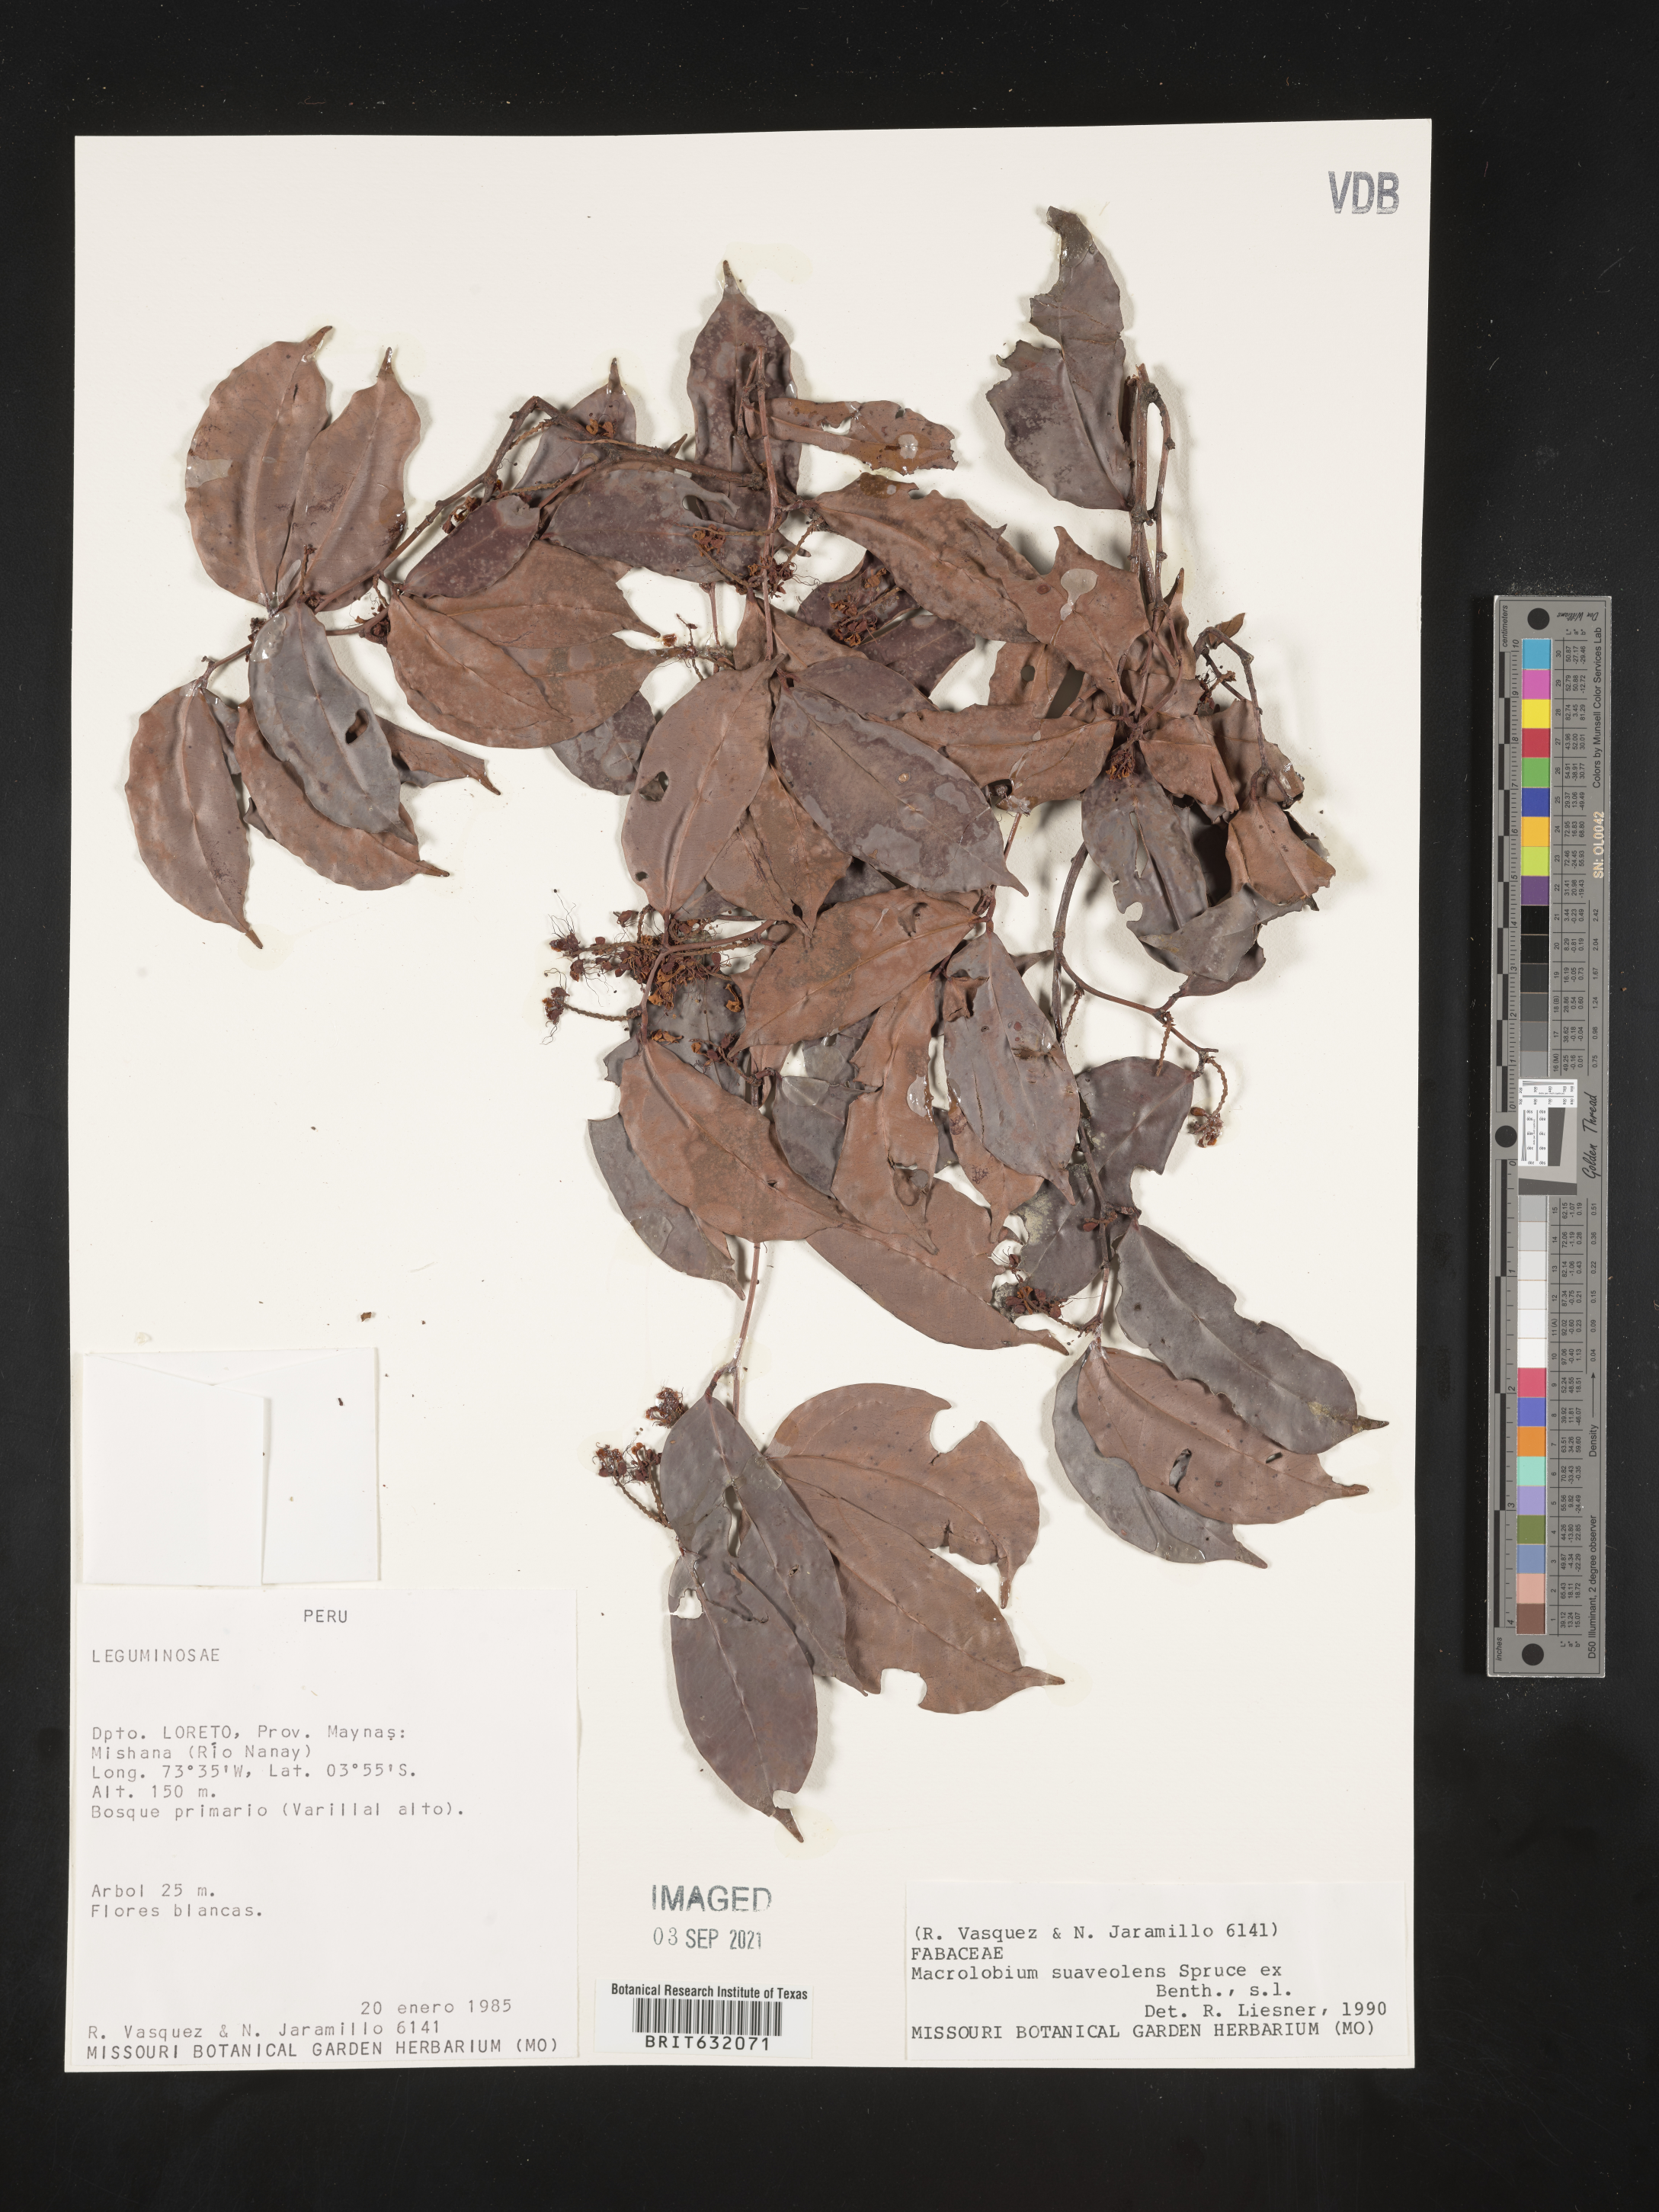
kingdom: Plantae
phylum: Tracheophyta
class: Magnoliopsida
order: Fabales
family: Fabaceae
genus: Macrolobium
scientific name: Macrolobium
